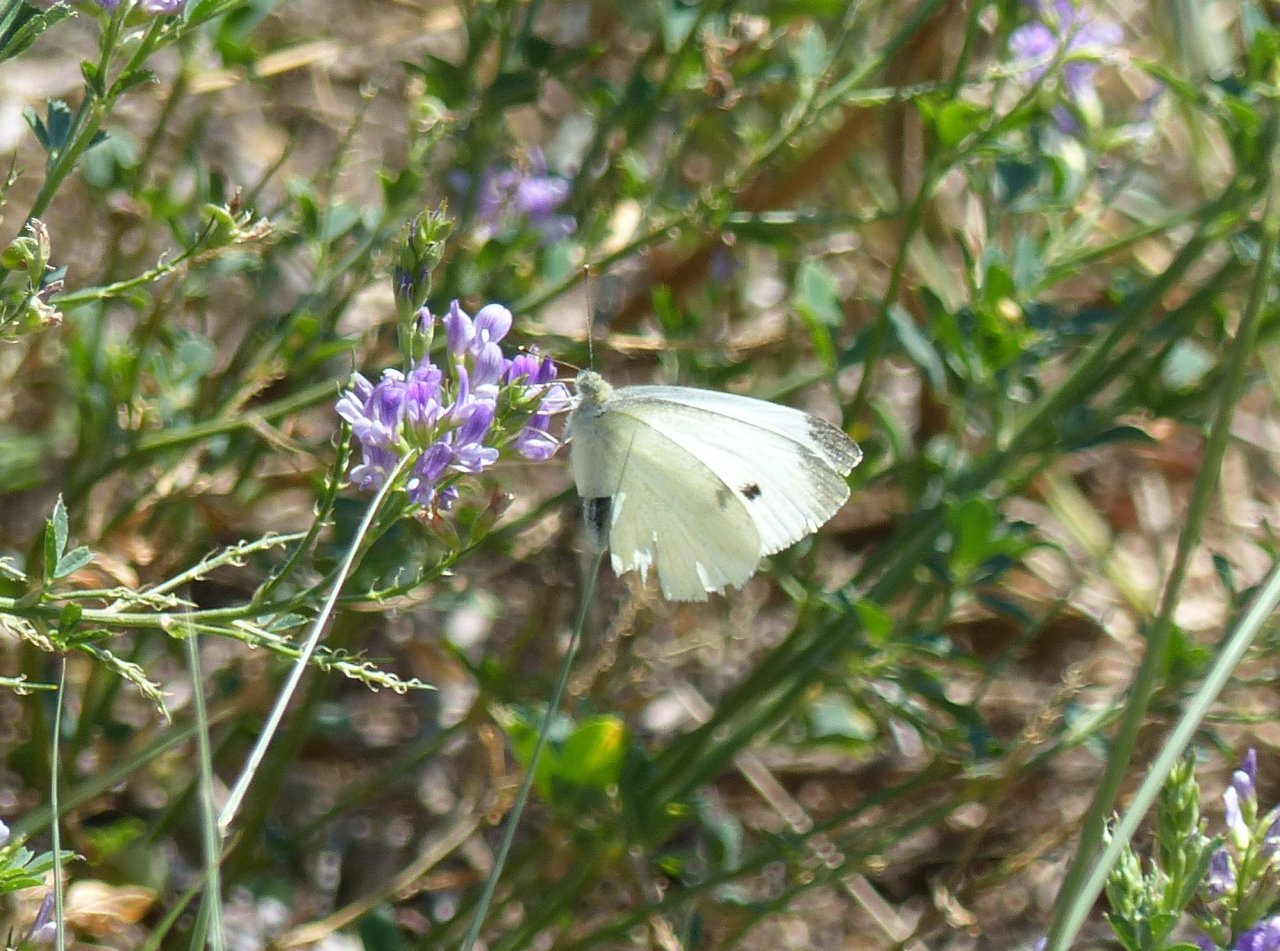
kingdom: Animalia
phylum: Arthropoda
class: Insecta
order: Lepidoptera
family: Pieridae
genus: Pieris
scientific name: Pieris rapae
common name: Cabbage White
